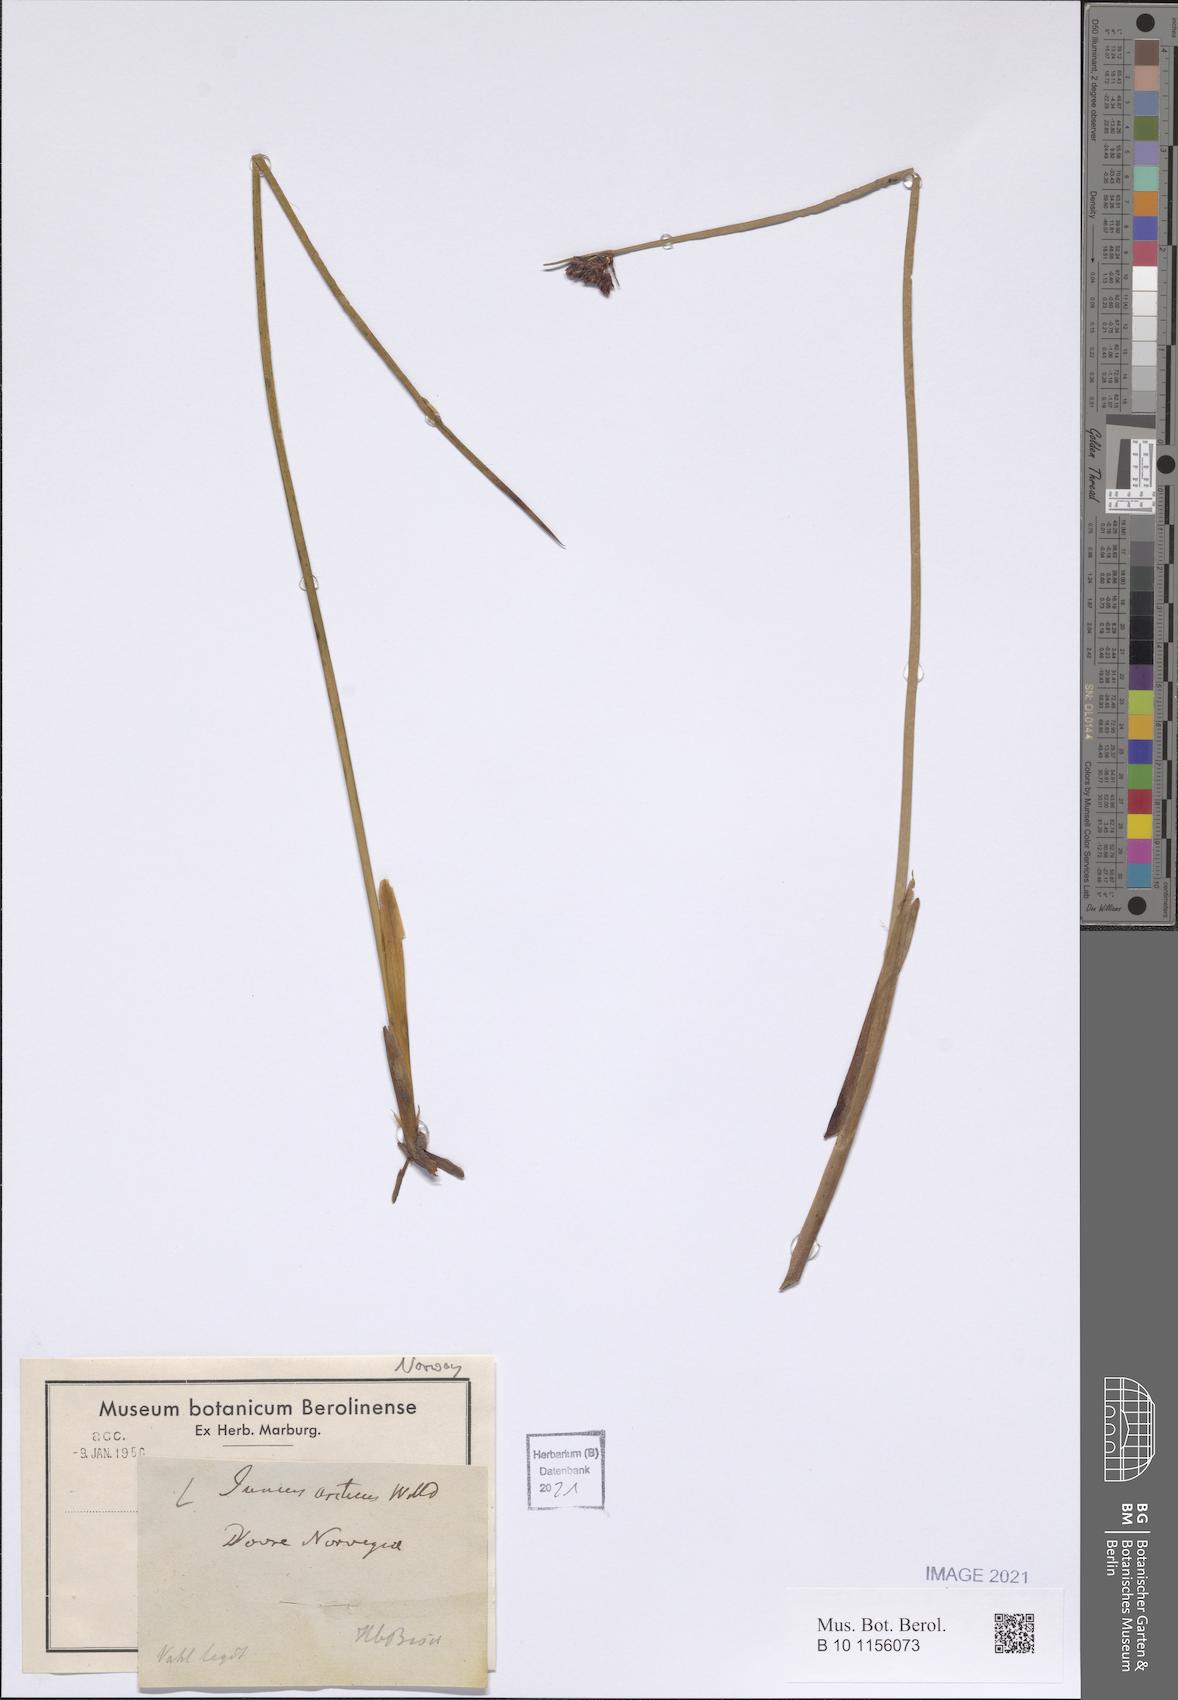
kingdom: Plantae
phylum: Tracheophyta
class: Liliopsida
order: Poales
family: Juncaceae
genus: Juncus
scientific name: Juncus arcticus
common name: Arctic rush
